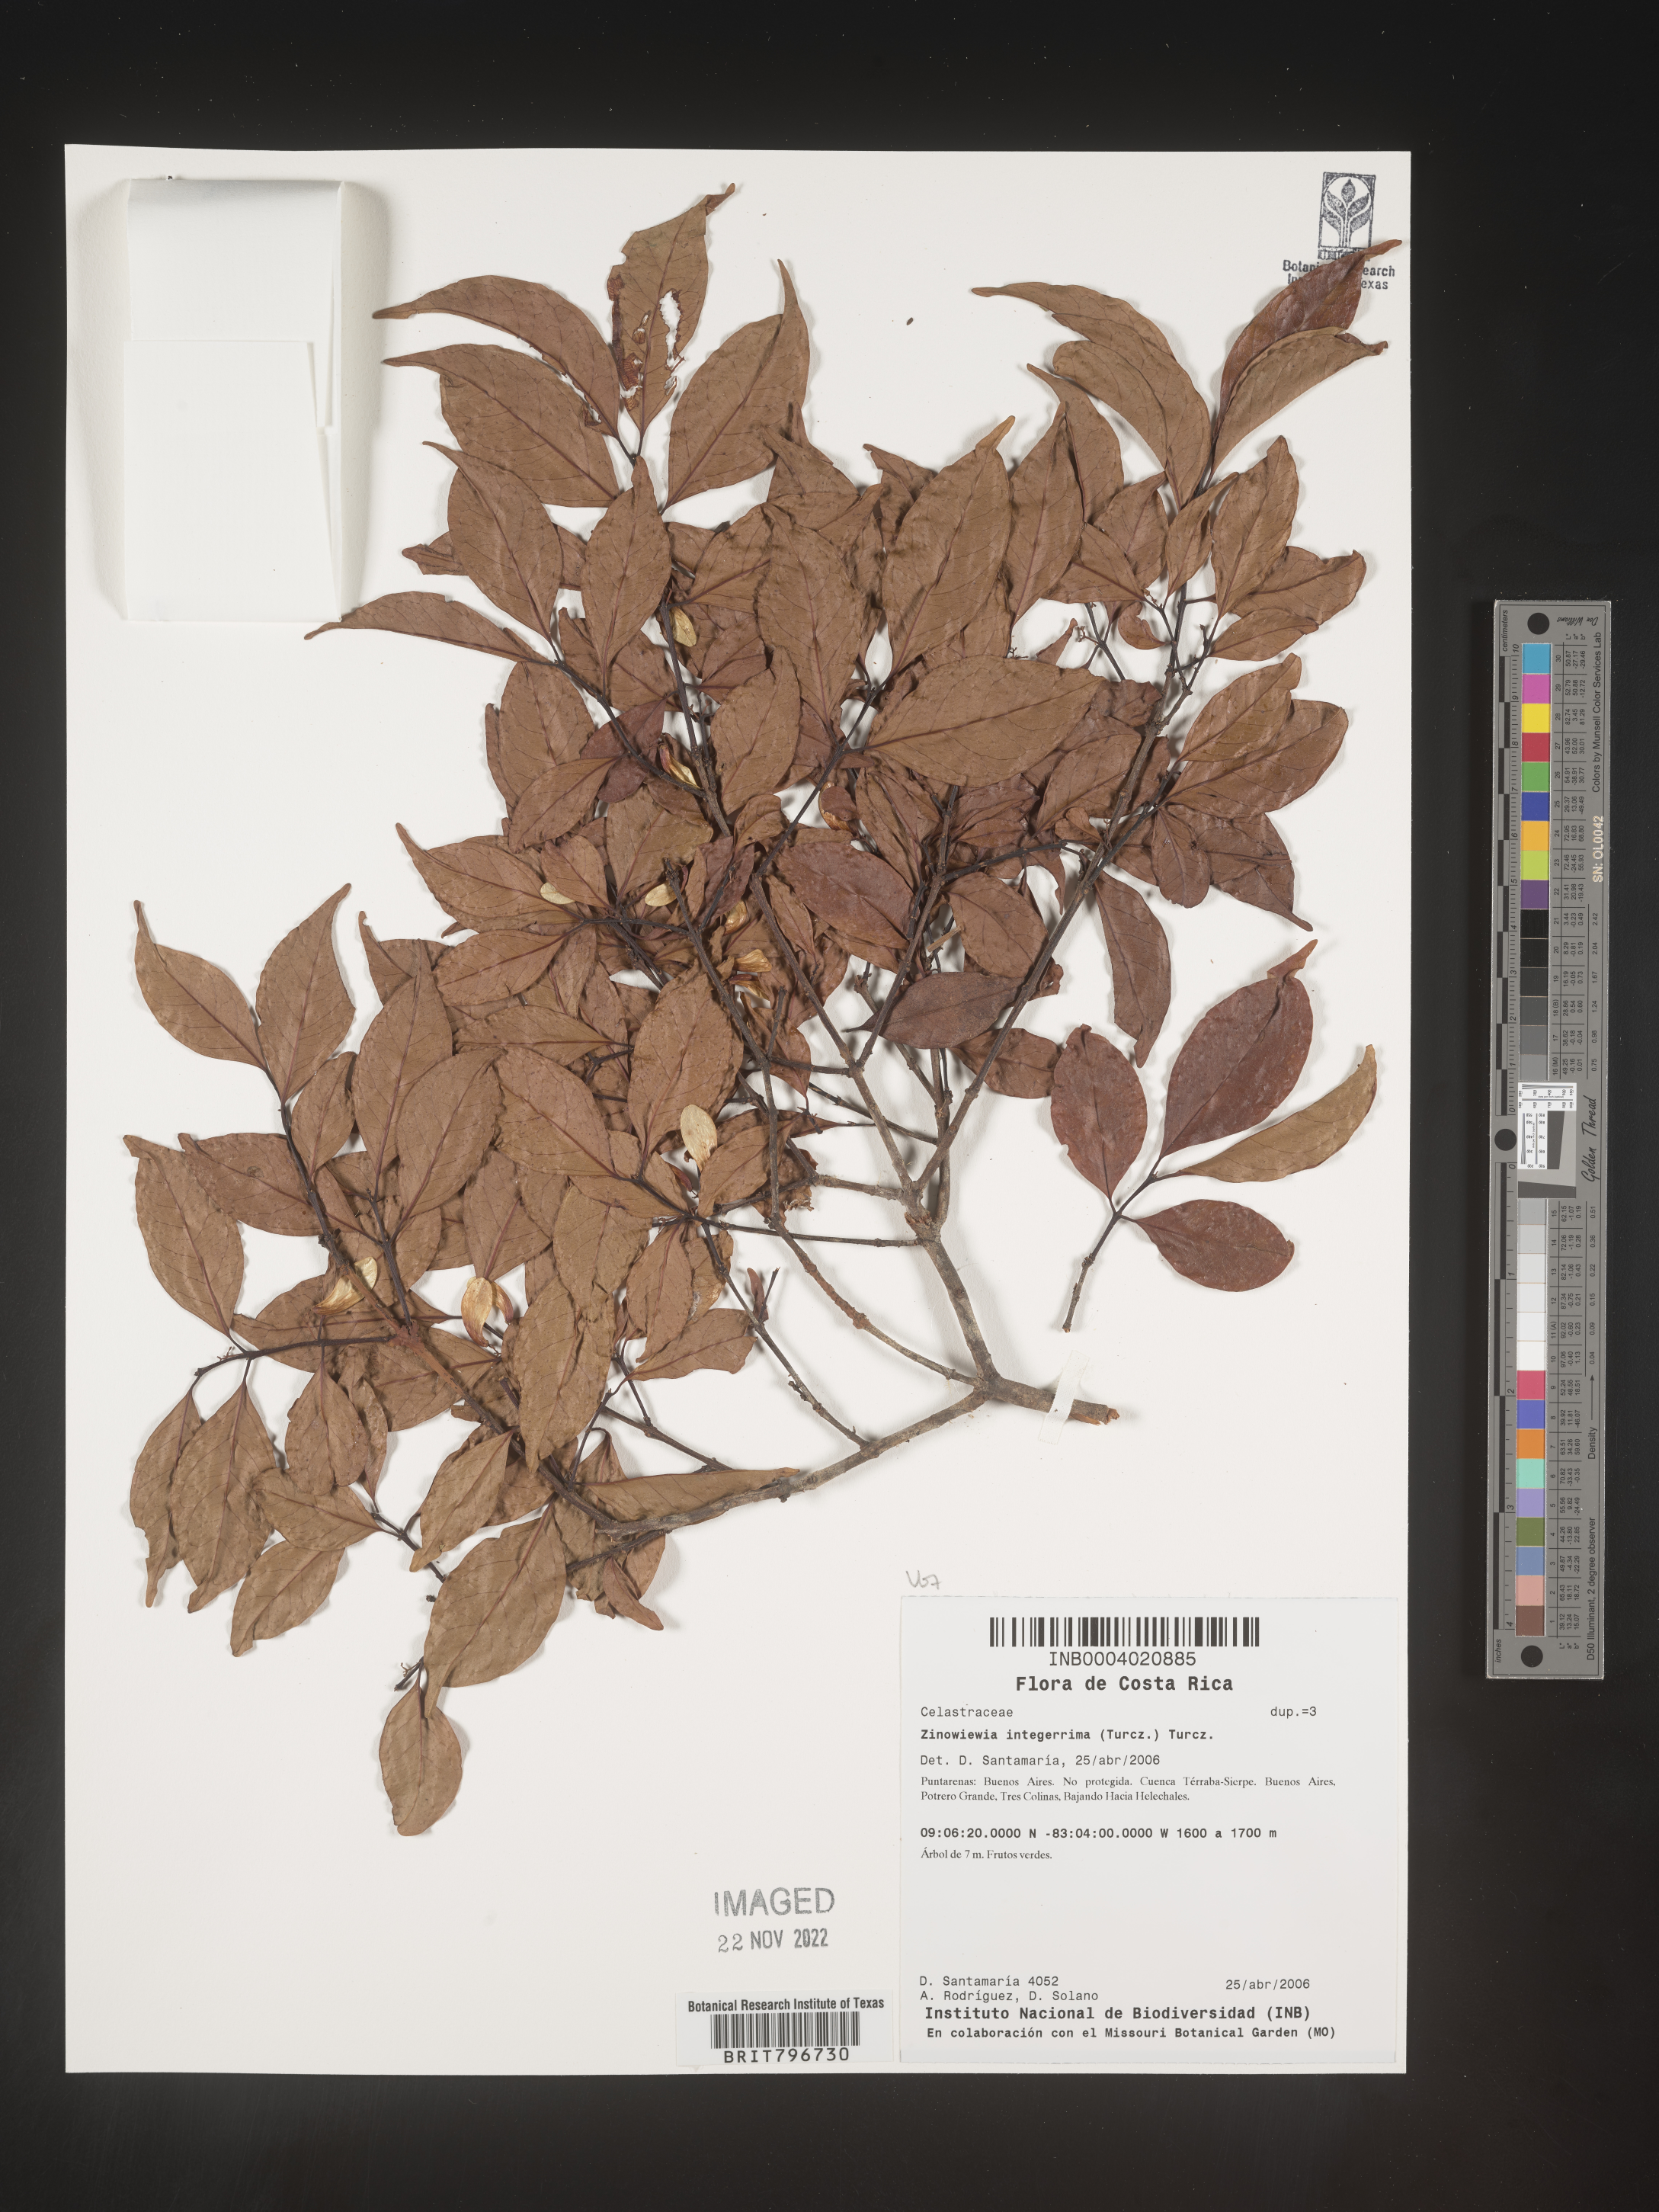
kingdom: Plantae
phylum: Tracheophyta
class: Magnoliopsida
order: Celastrales
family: Celastraceae
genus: Zinowiewia
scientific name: Zinowiewia
